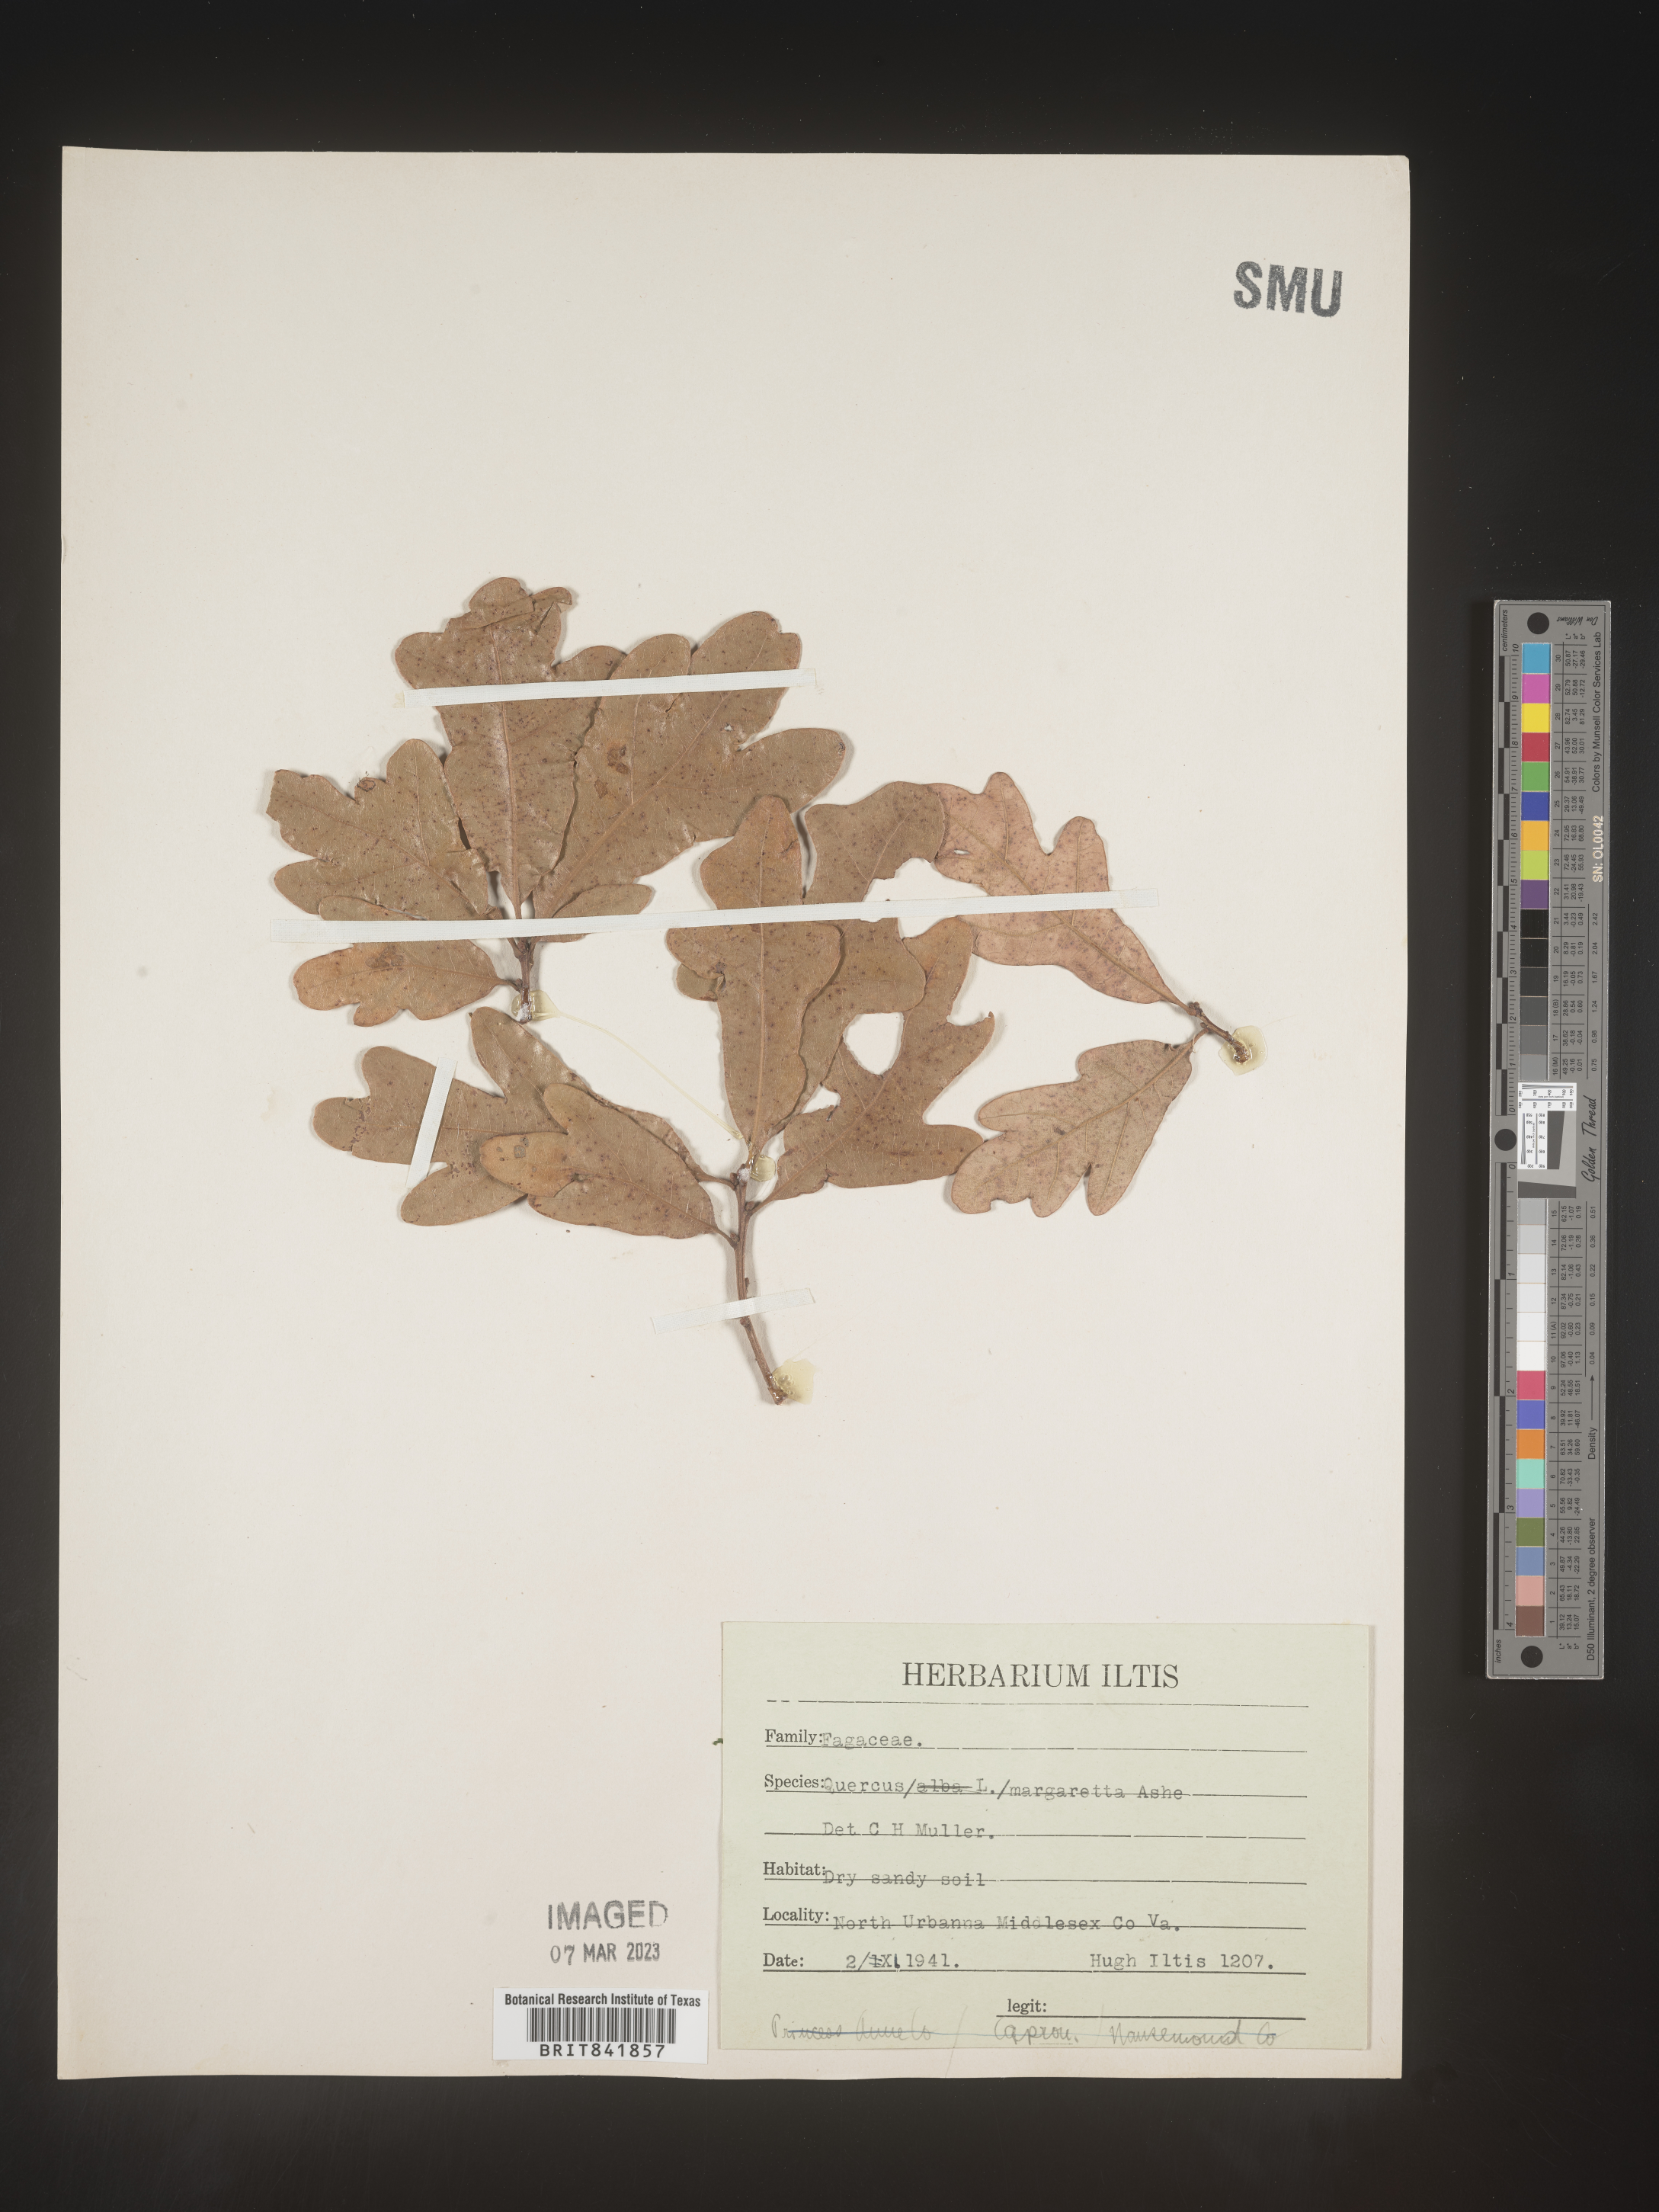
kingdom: Plantae
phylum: Tracheophyta
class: Magnoliopsida
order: Fagales
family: Fagaceae
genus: Quercus
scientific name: Quercus stellata
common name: Post oak
